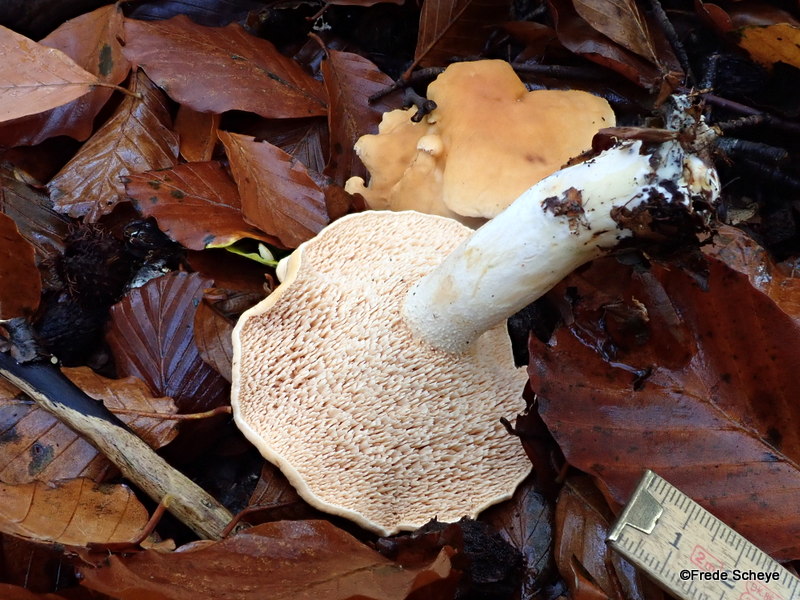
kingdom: Fungi
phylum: Basidiomycota
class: Agaricomycetes
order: Cantharellales
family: Hydnaceae
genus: Hydnum
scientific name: Hydnum repandum
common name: almindelig pigsvamp
